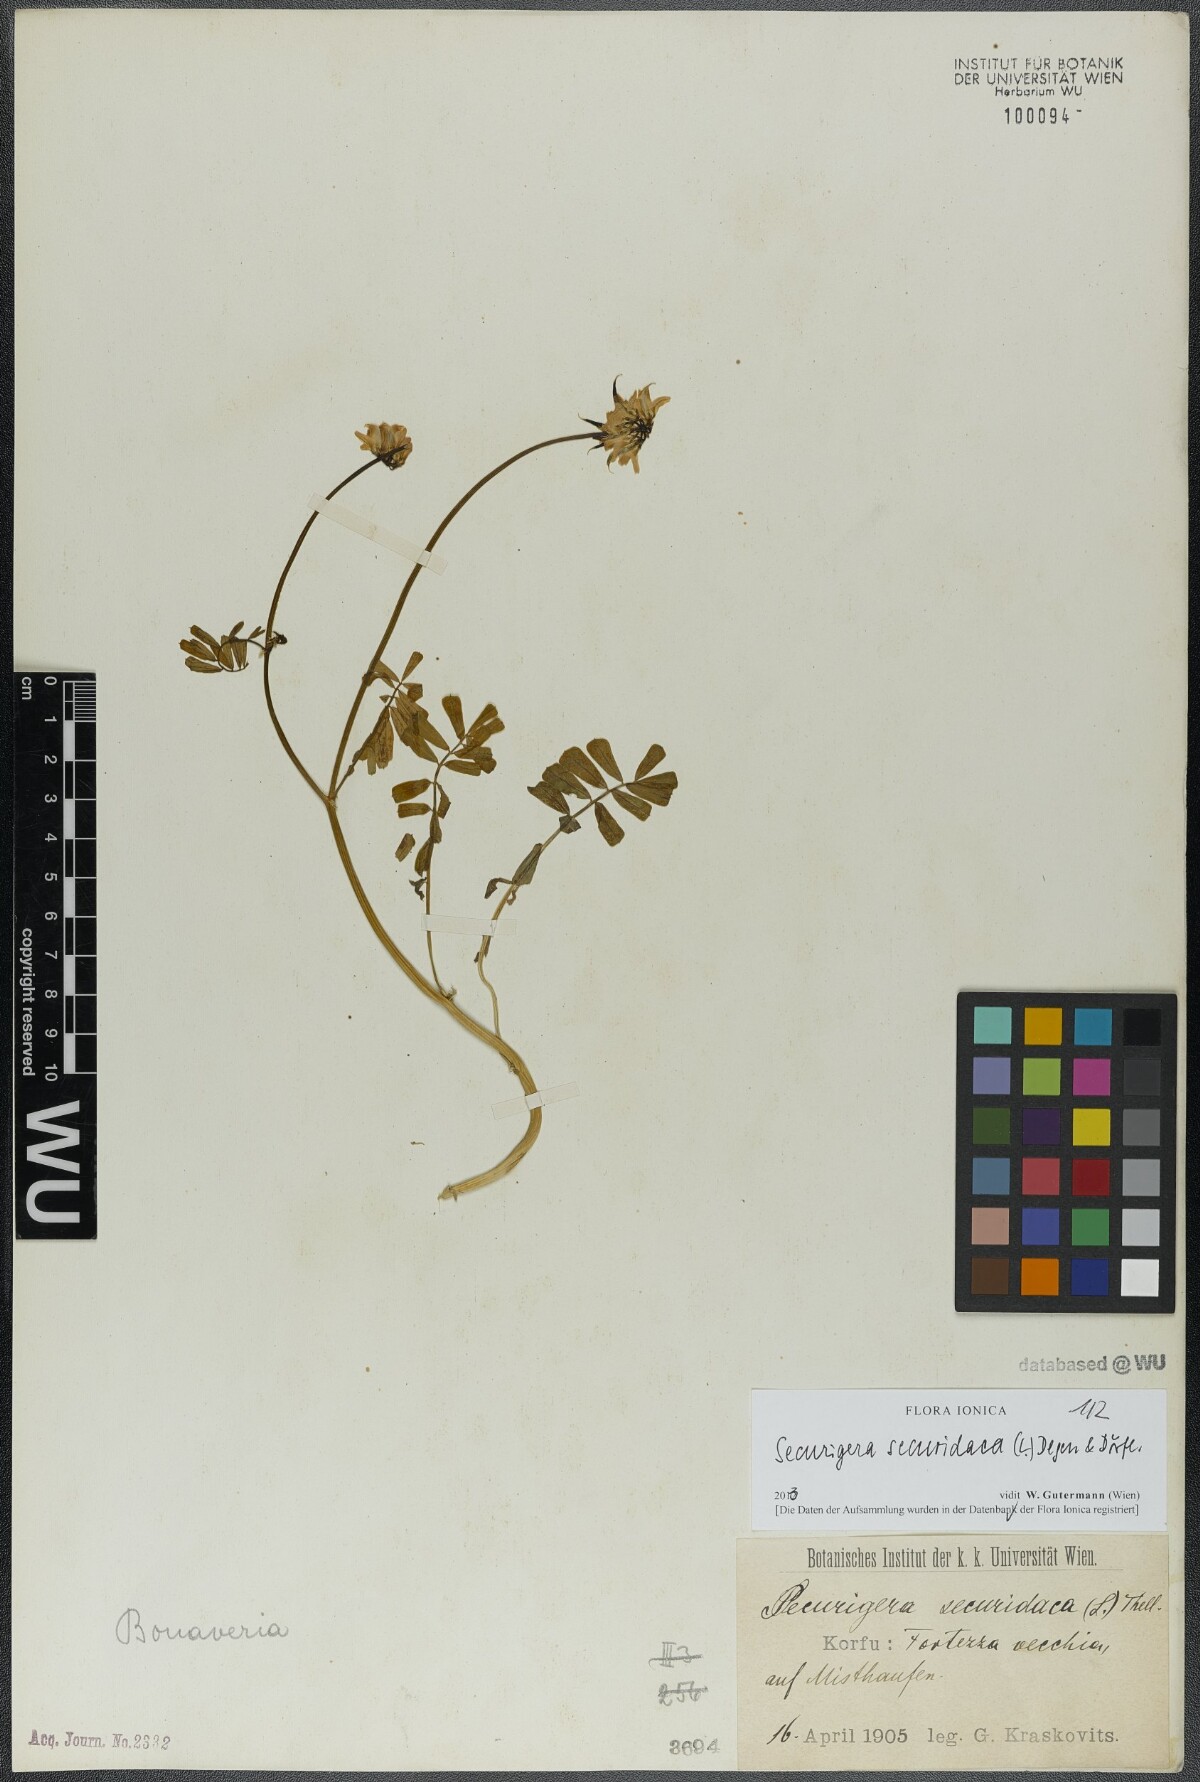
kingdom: Plantae
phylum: Tracheophyta
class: Magnoliopsida
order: Fabales
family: Fabaceae
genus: Coronilla
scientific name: Coronilla securidaca
